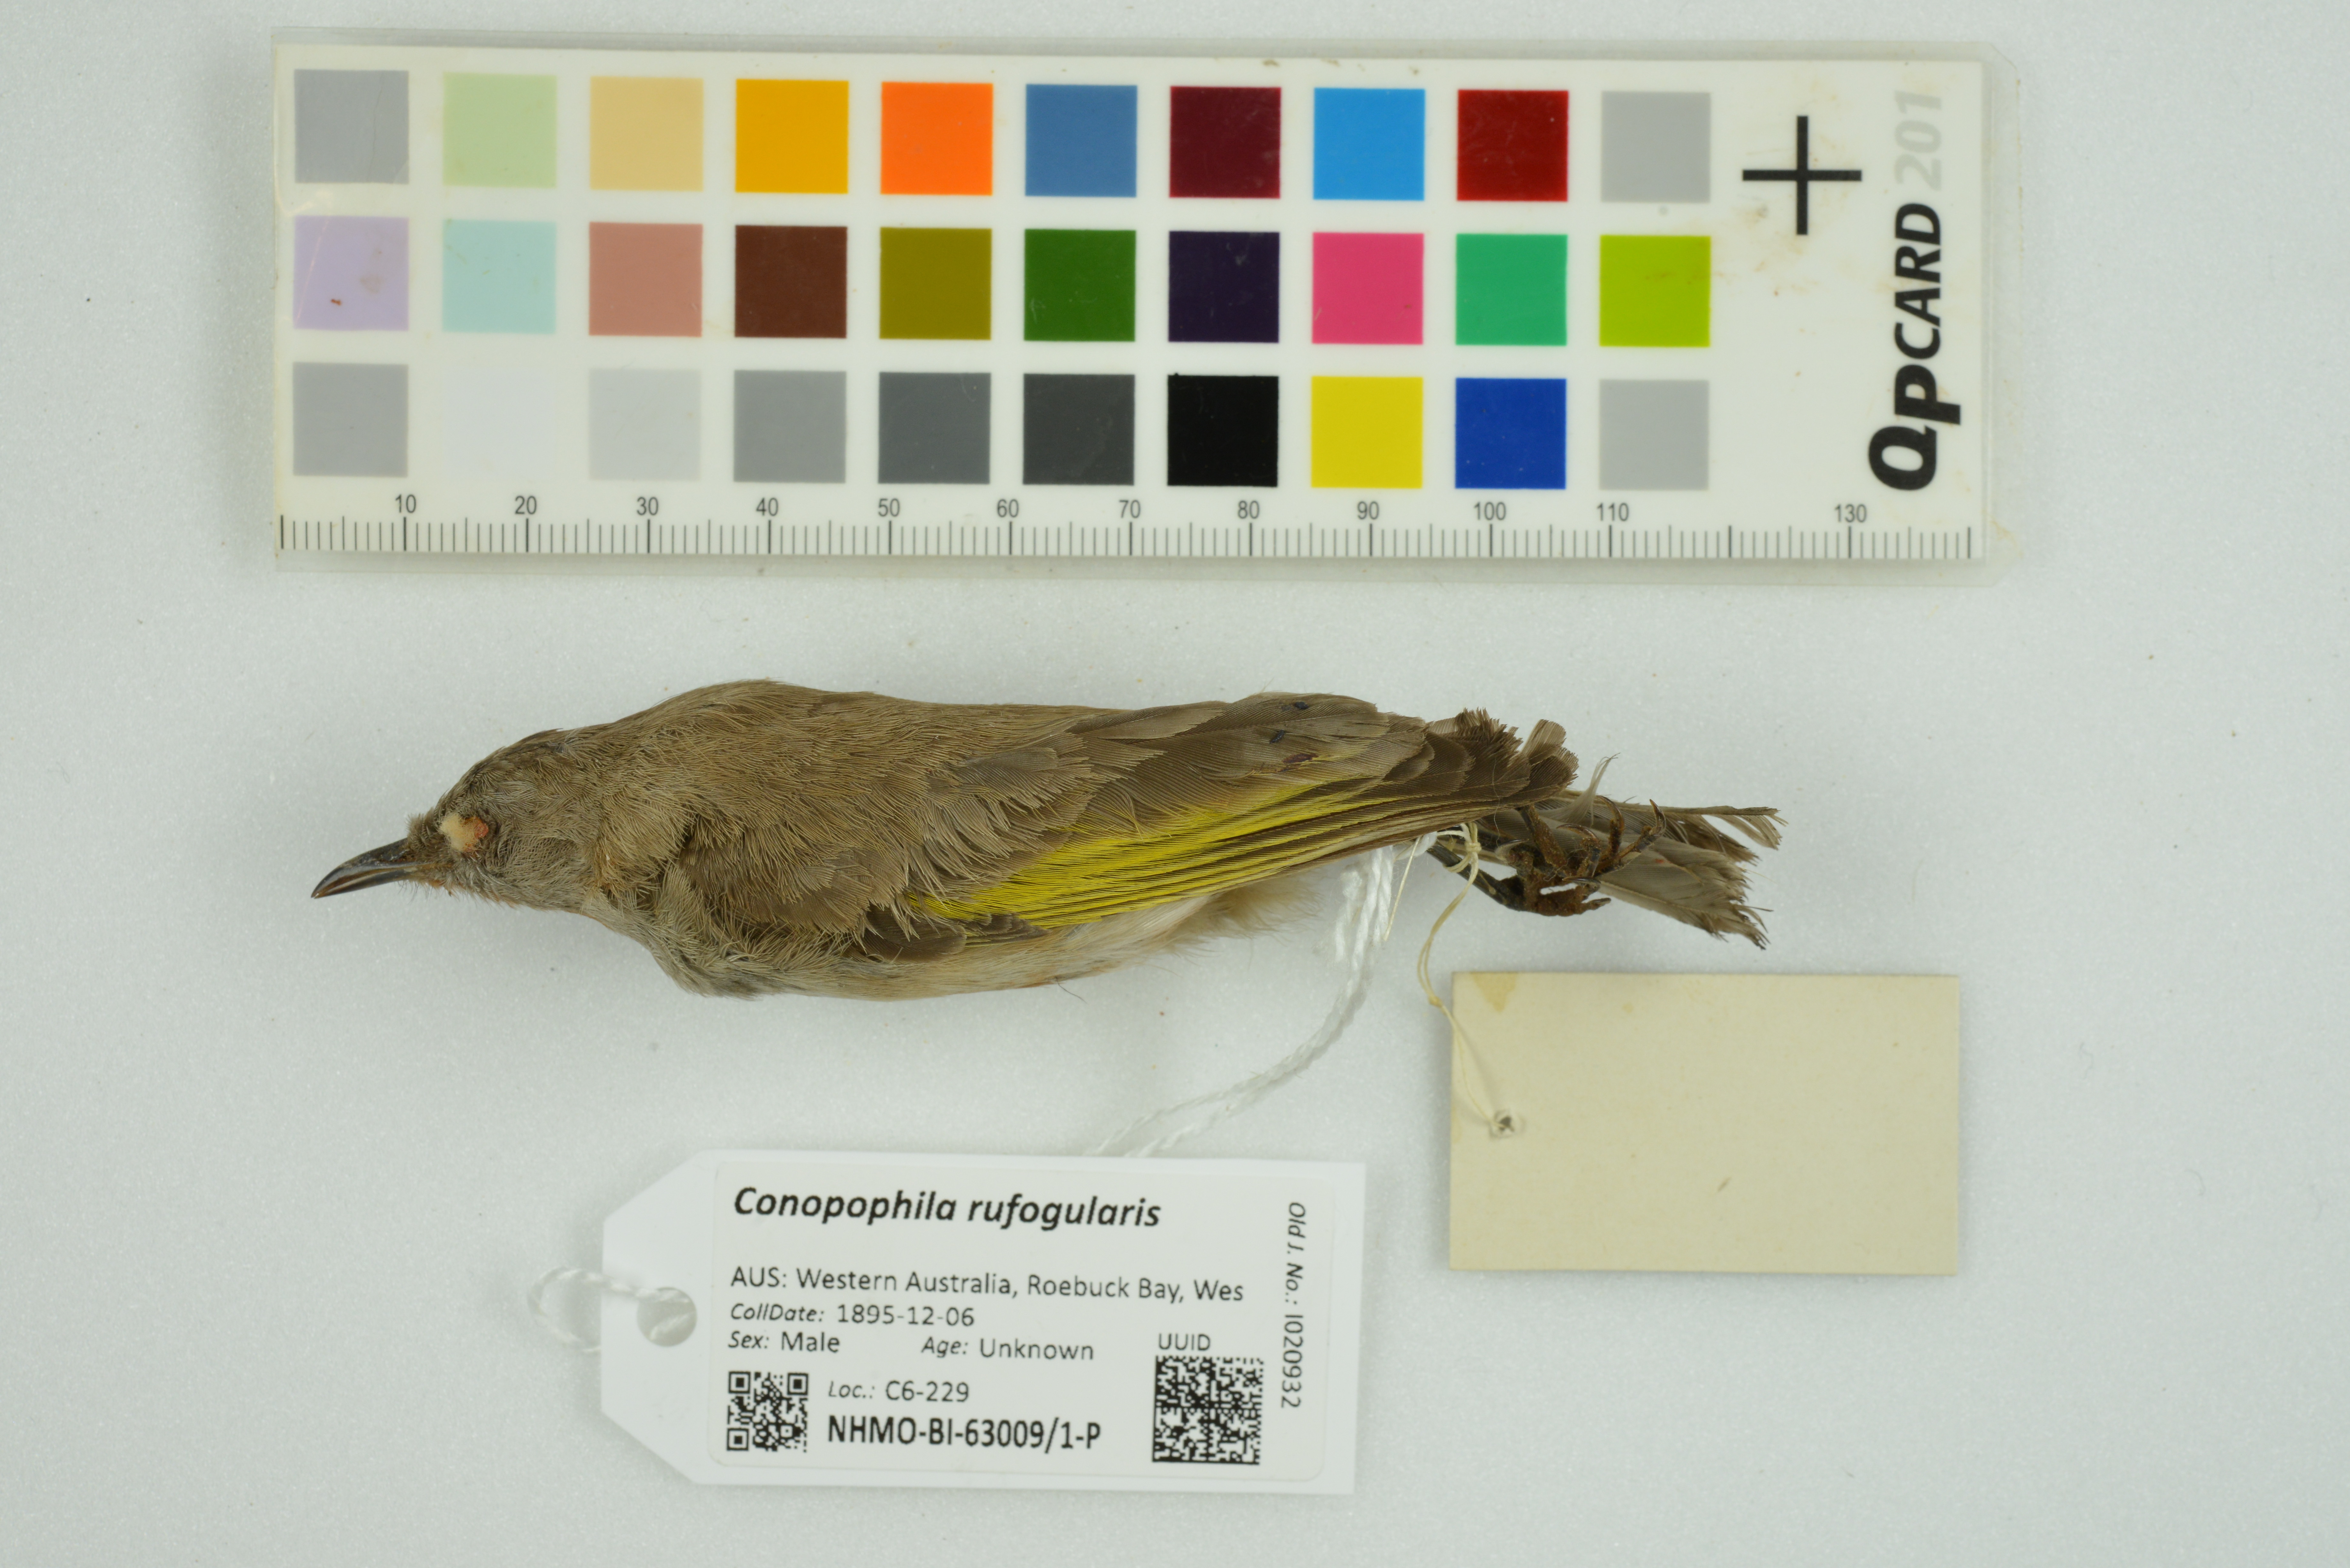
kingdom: Animalia
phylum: Chordata
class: Aves
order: Passeriformes
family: Meliphagidae
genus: Conopophila
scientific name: Conopophila rufogularis
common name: Rufous-throated honeyeater
